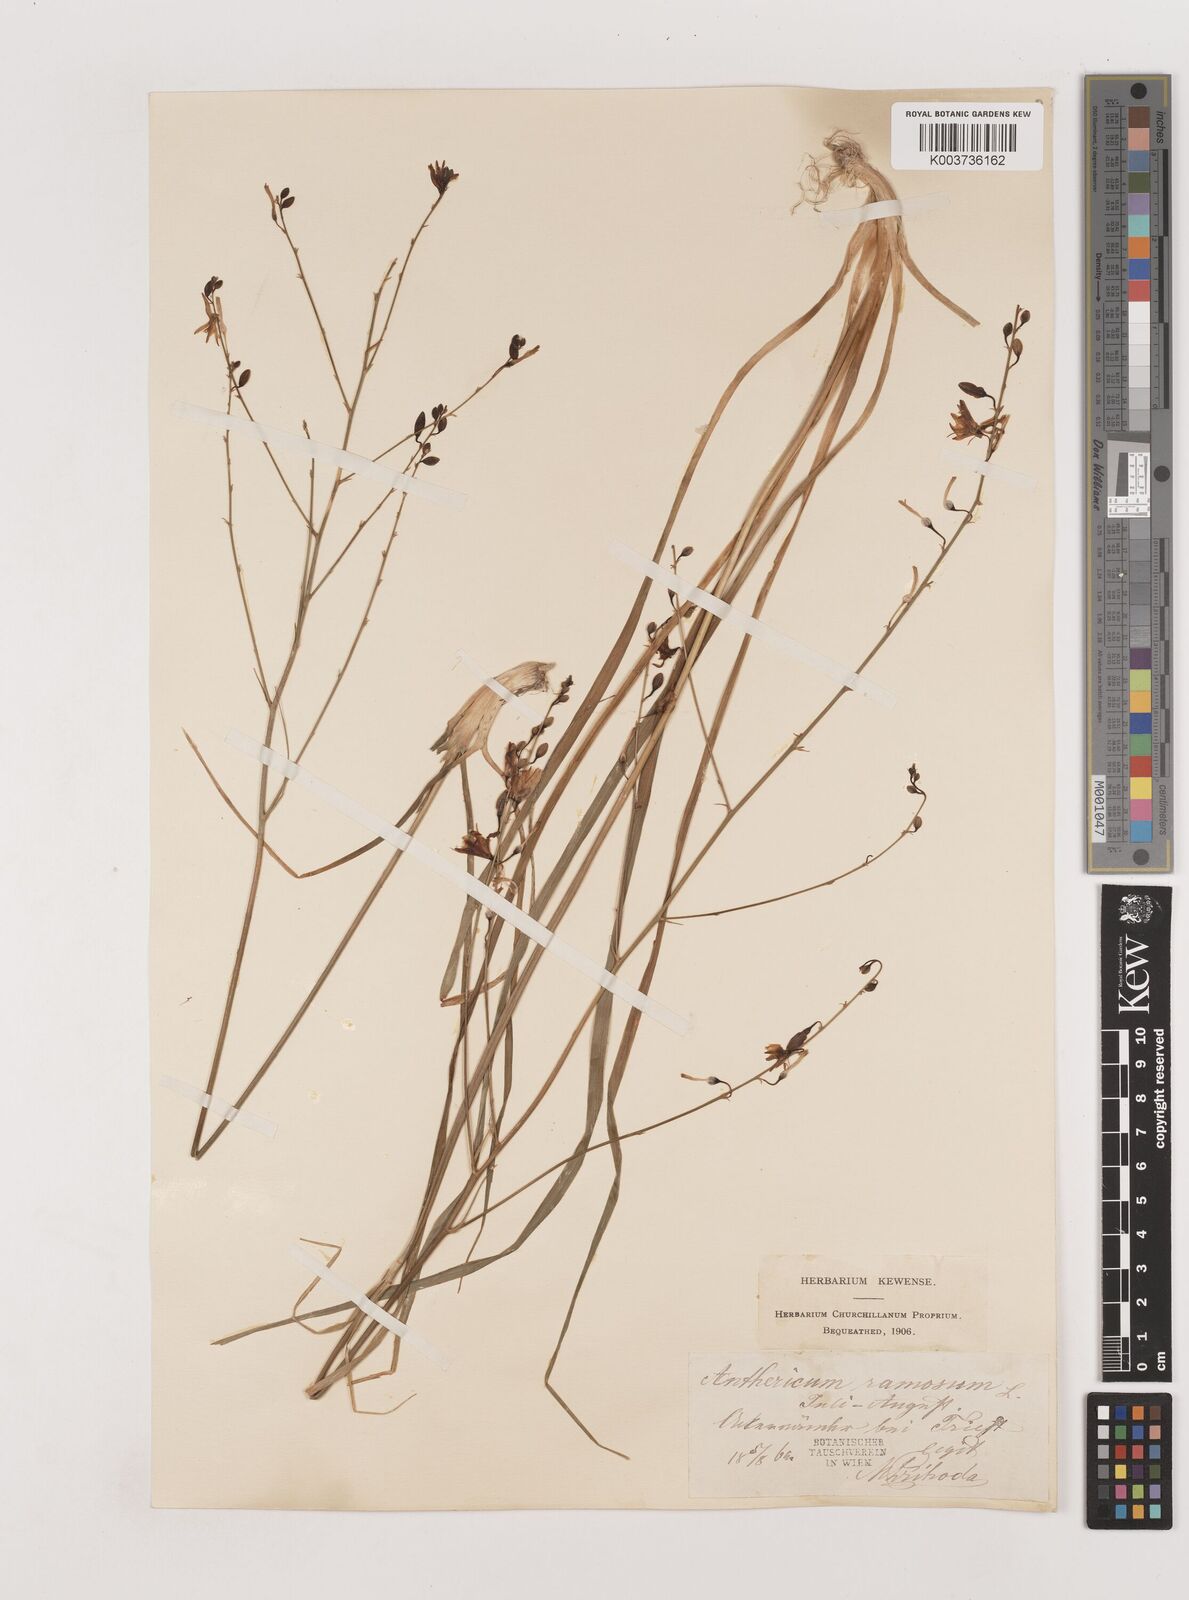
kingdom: Plantae
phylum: Tracheophyta
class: Liliopsida
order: Asparagales
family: Asparagaceae
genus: Anthericum
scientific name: Anthericum ramosum
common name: Branched st. bernard's-lily
